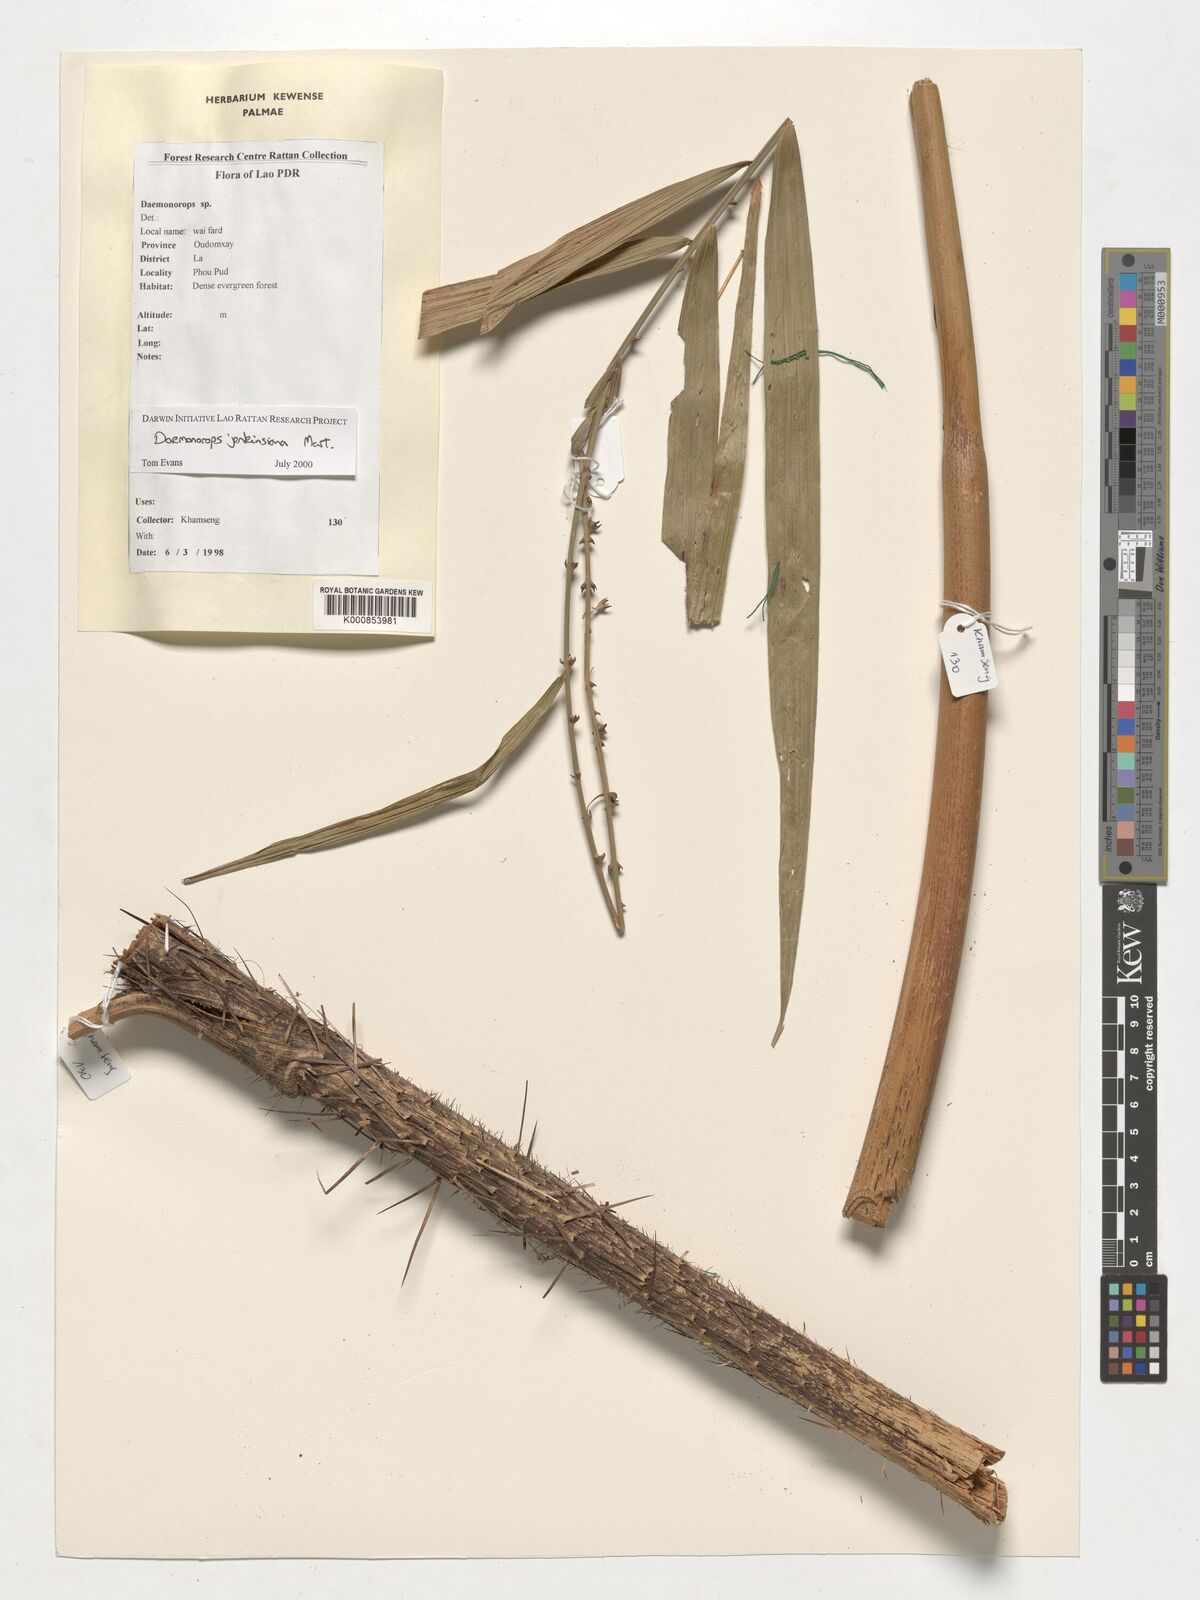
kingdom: Plantae
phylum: Tracheophyta
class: Liliopsida
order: Arecales
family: Arecaceae
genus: Calamus
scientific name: Calamus melanochaetes
